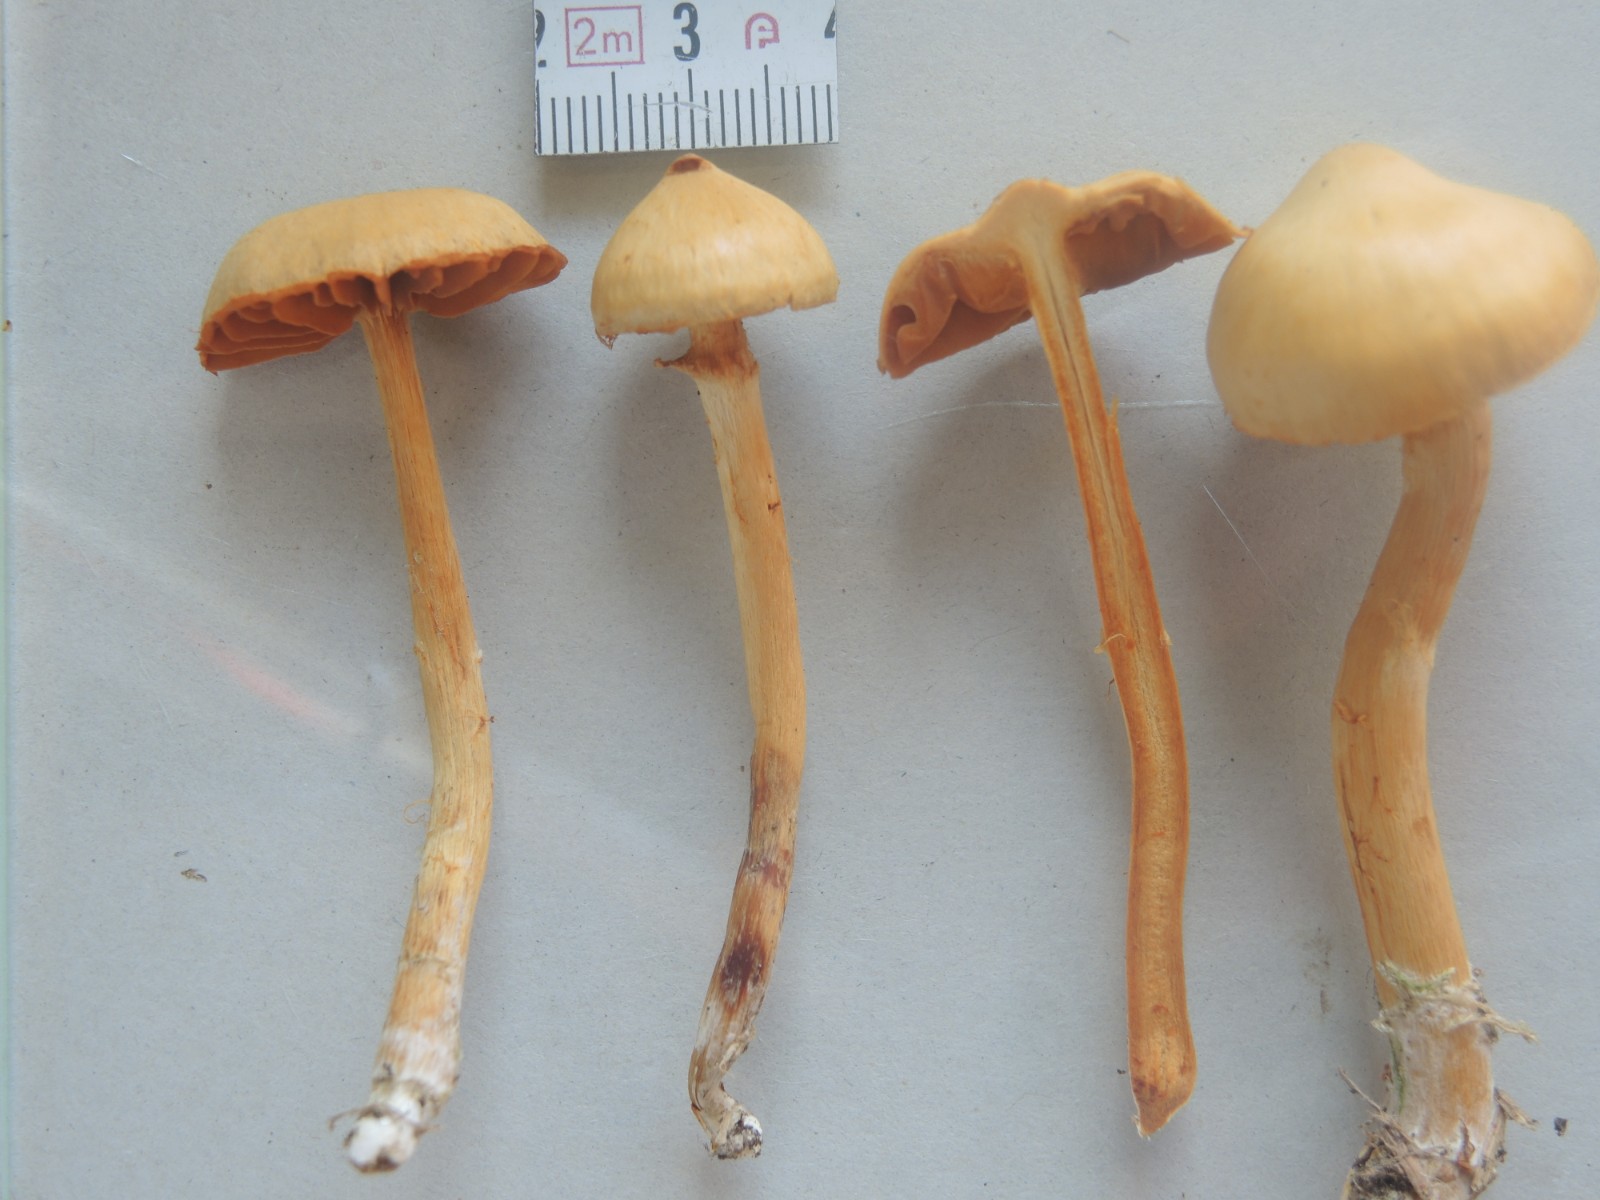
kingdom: Fungi
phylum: Basidiomycota
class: Agaricomycetes
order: Agaricales
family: Cortinariaceae
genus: Cortinarius
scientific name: Cortinarius gentilis
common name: bæltet slørhat
